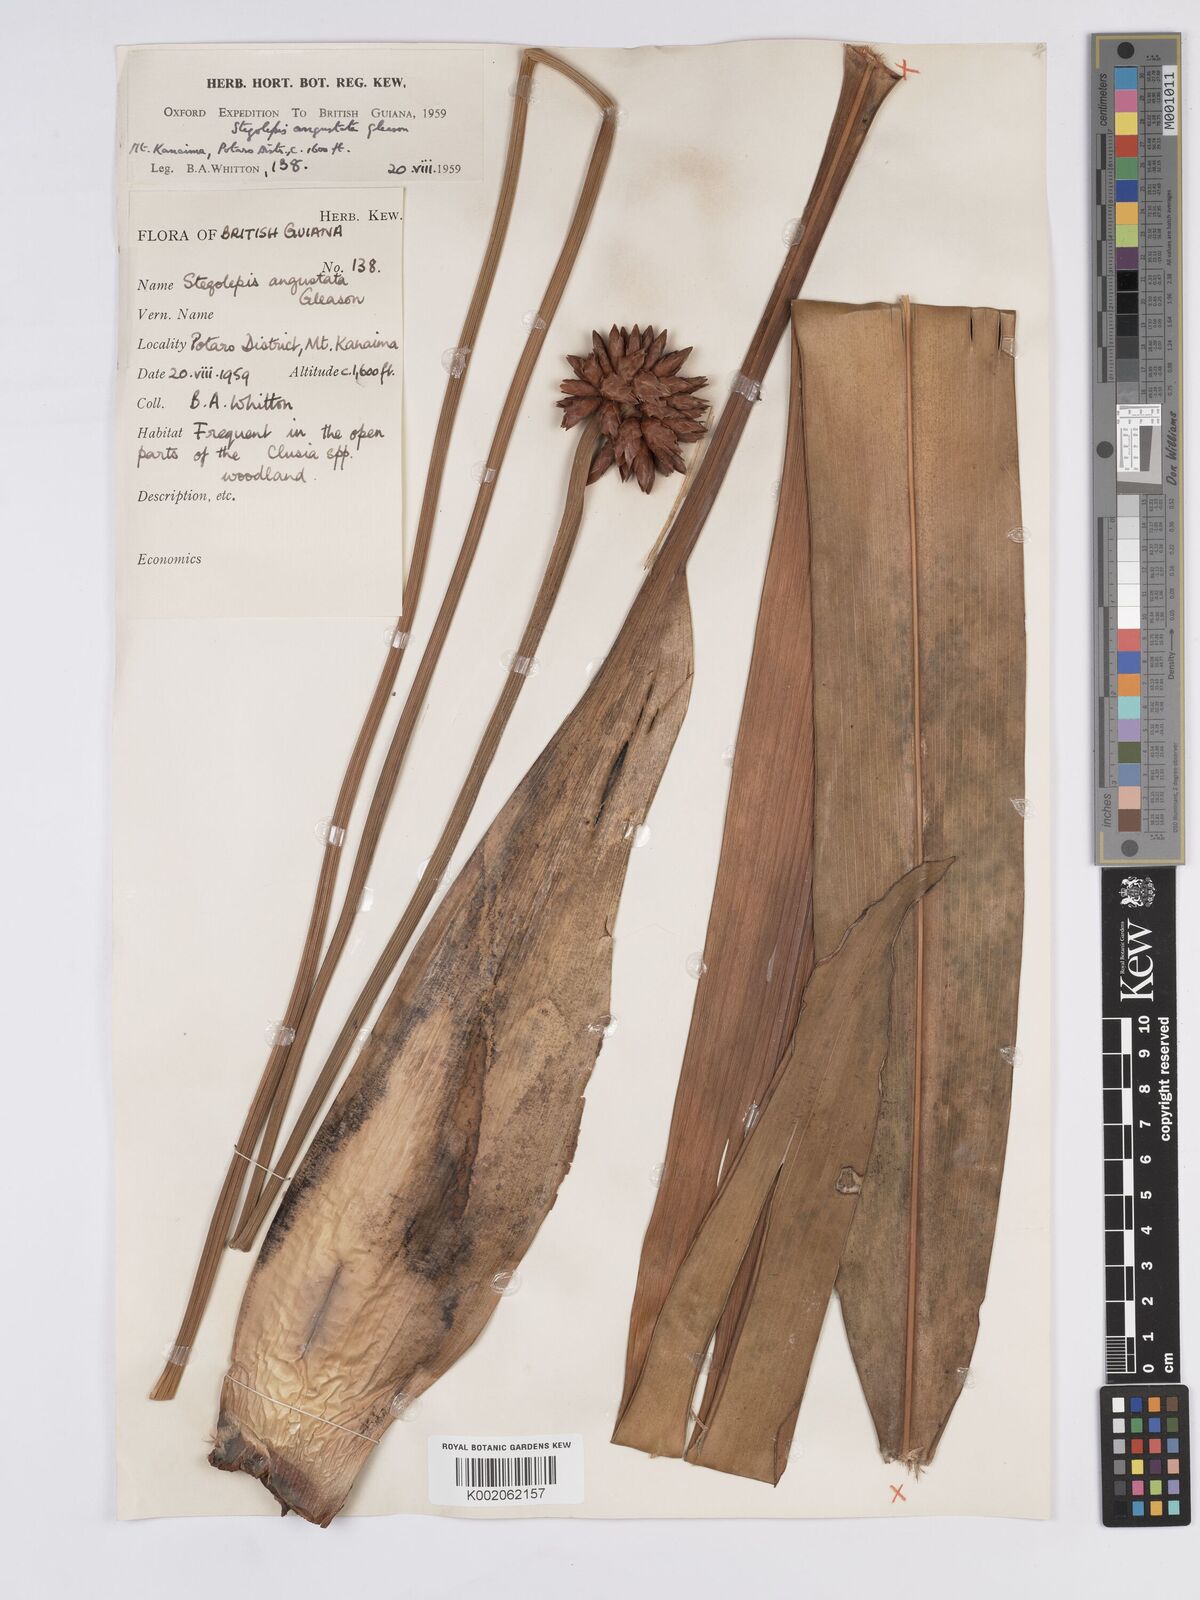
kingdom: Plantae
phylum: Tracheophyta
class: Liliopsida
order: Poales
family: Rapateaceae
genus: Stegolepis
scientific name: Stegolepis angustata
